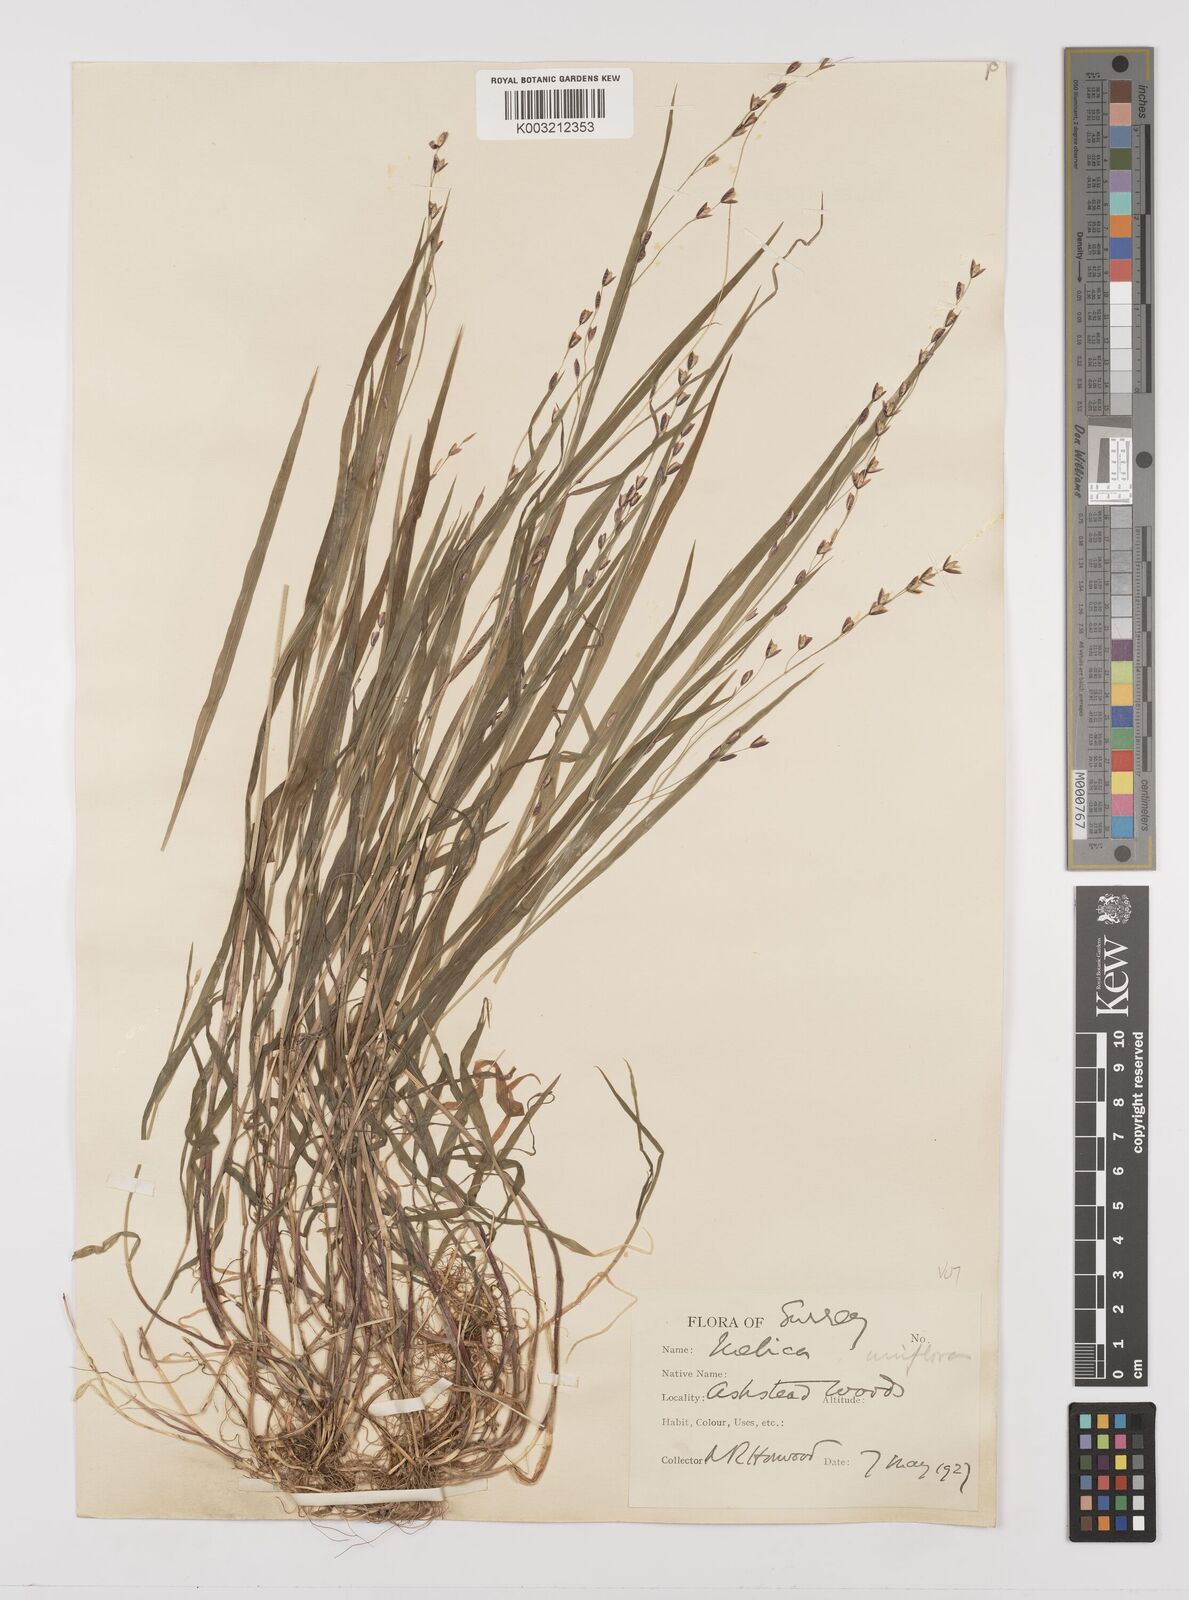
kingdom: Plantae
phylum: Tracheophyta
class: Liliopsida
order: Poales
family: Poaceae
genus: Melica
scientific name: Melica uniflora
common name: Wood melick
